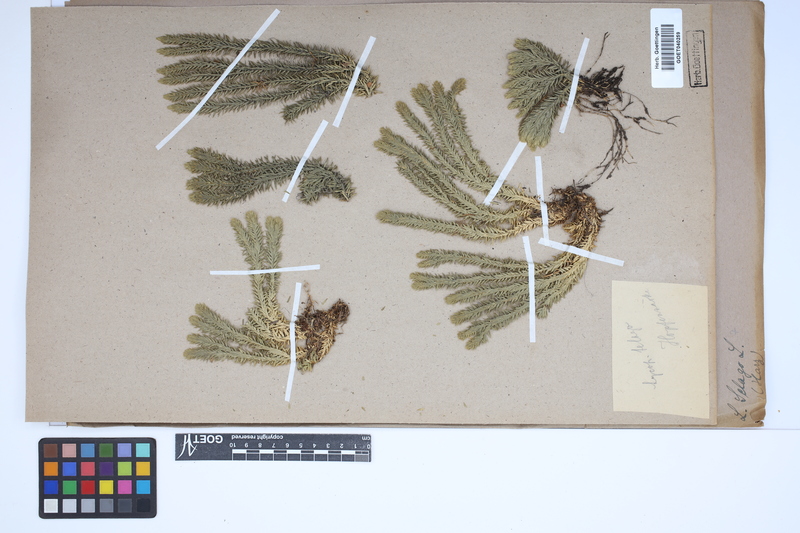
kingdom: Plantae
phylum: Tracheophyta
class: Lycopodiopsida
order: Lycopodiales
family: Lycopodiaceae
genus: Huperzia
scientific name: Huperzia selago
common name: Northern firmoss
